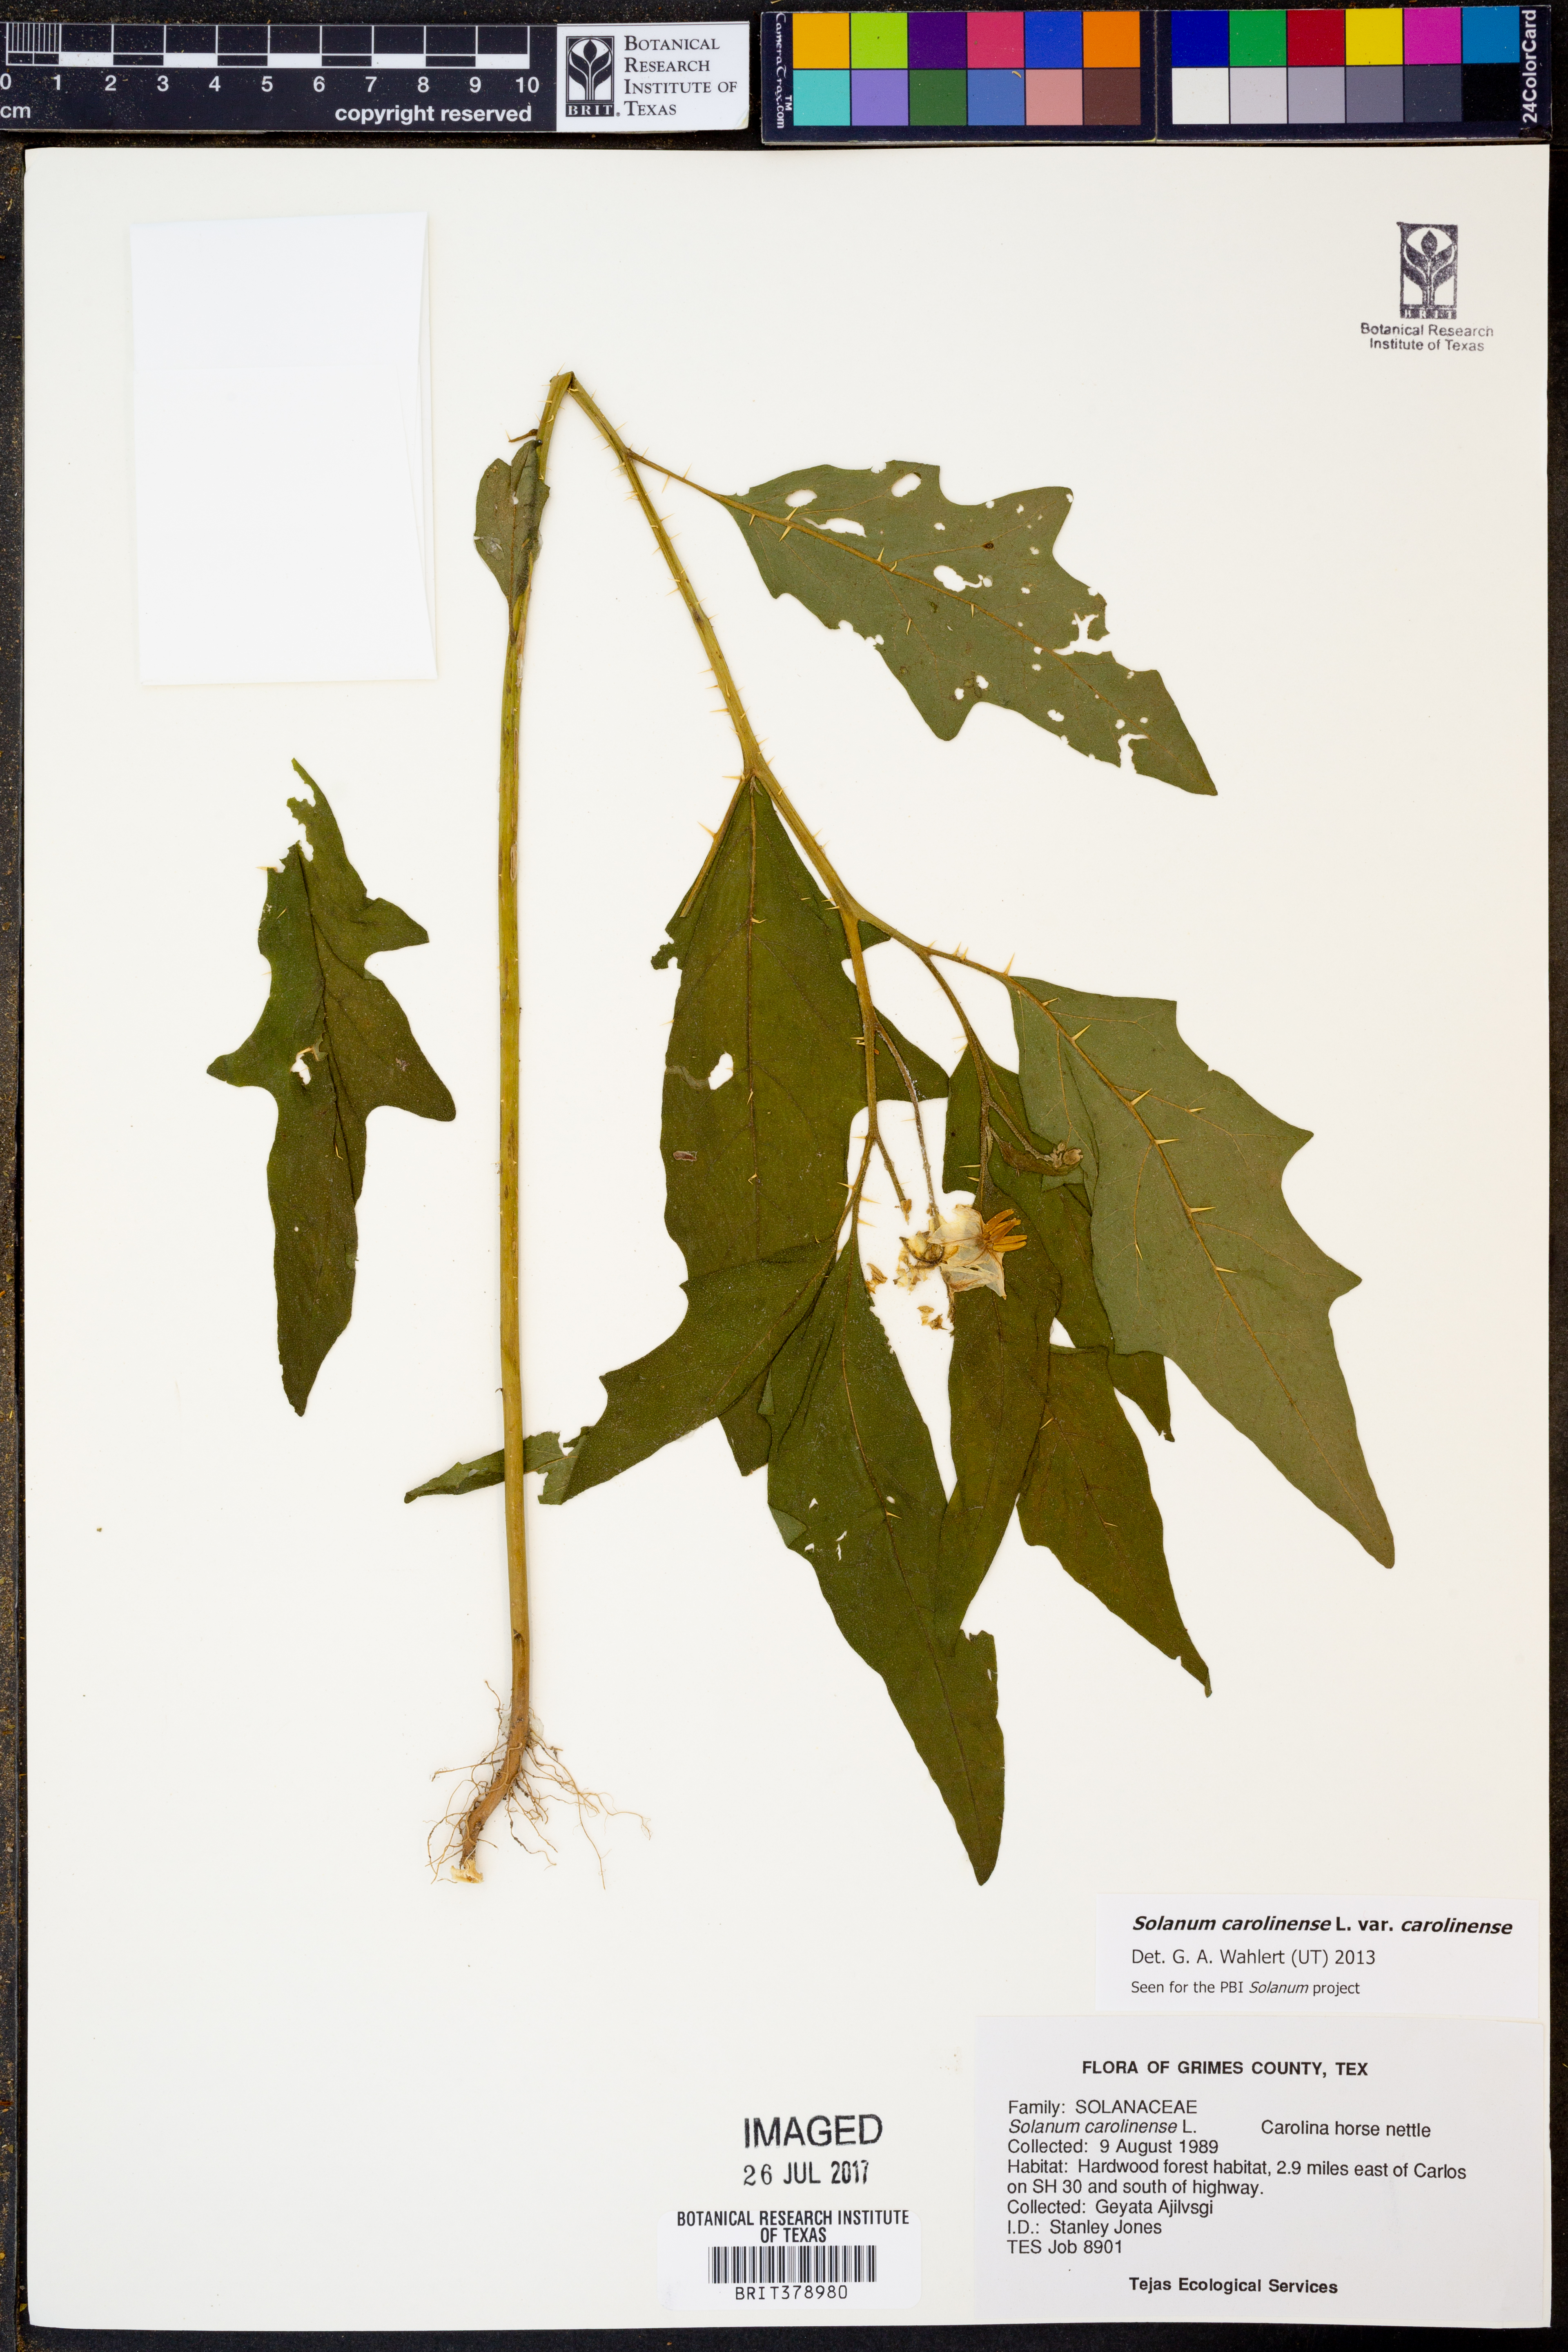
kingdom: Plantae
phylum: Tracheophyta
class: Magnoliopsida
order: Solanales
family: Solanaceae
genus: Solanum
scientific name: Solanum carolinense
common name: Horse-nettle
